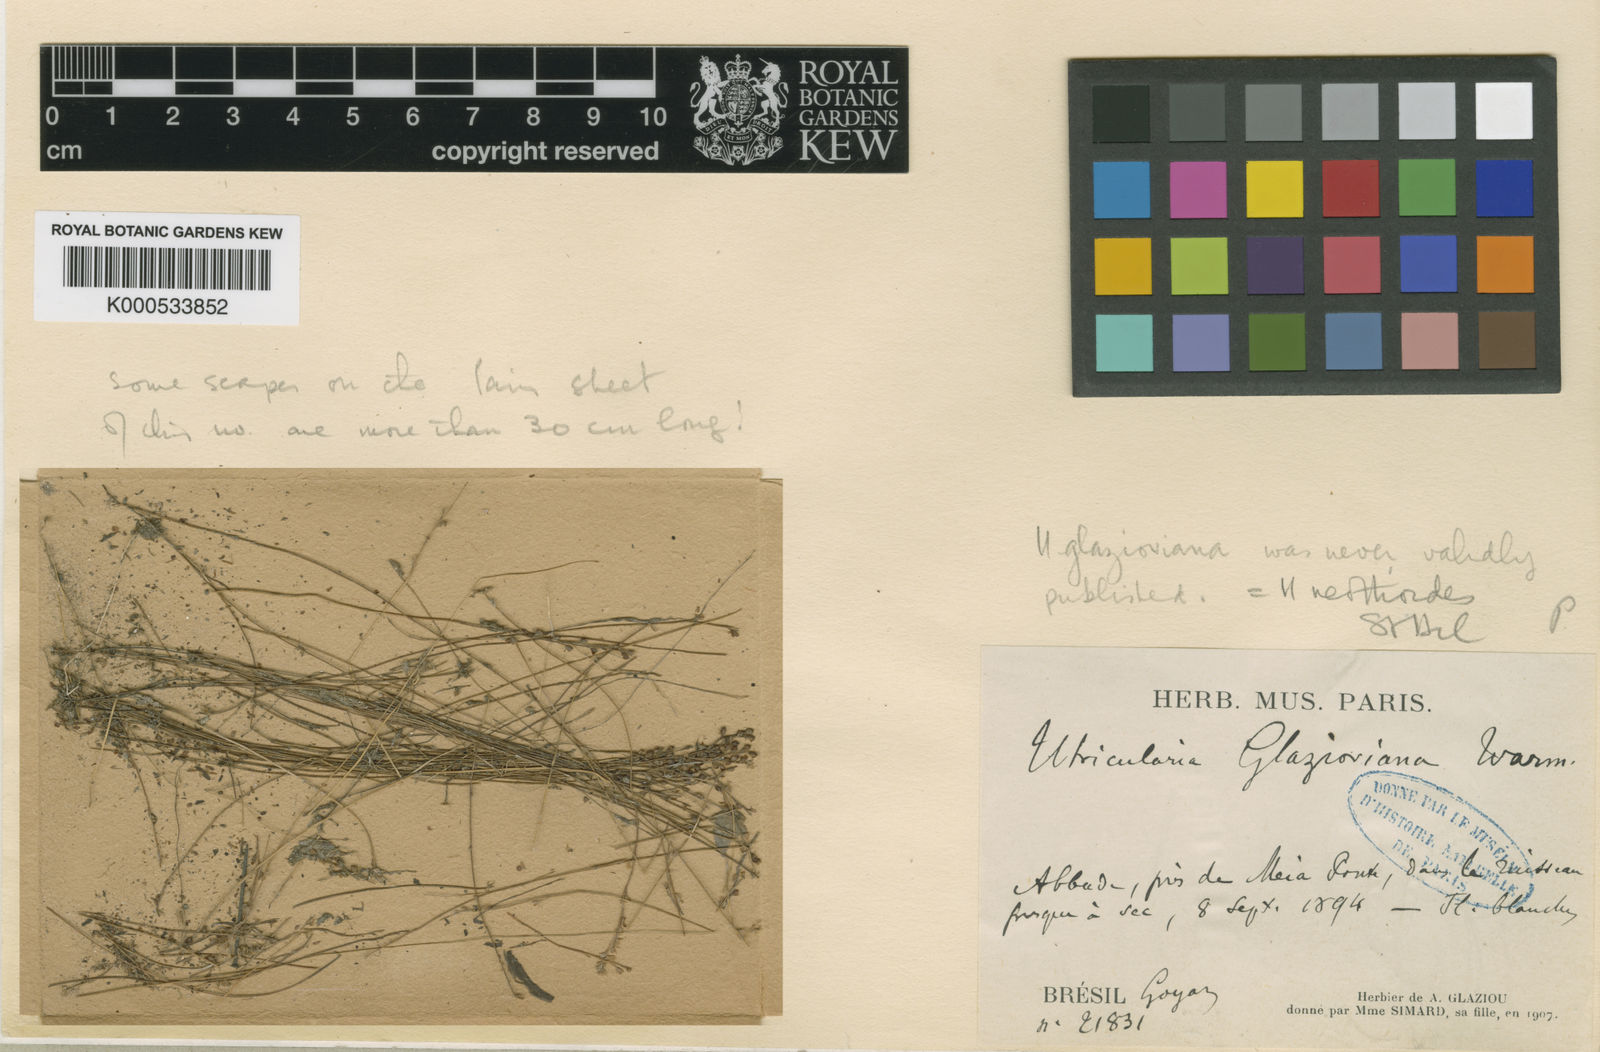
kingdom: Plantae
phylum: Tracheophyta
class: Magnoliopsida
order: Lamiales
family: Lentibulariaceae
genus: Utricularia
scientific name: Utricularia neottioides
